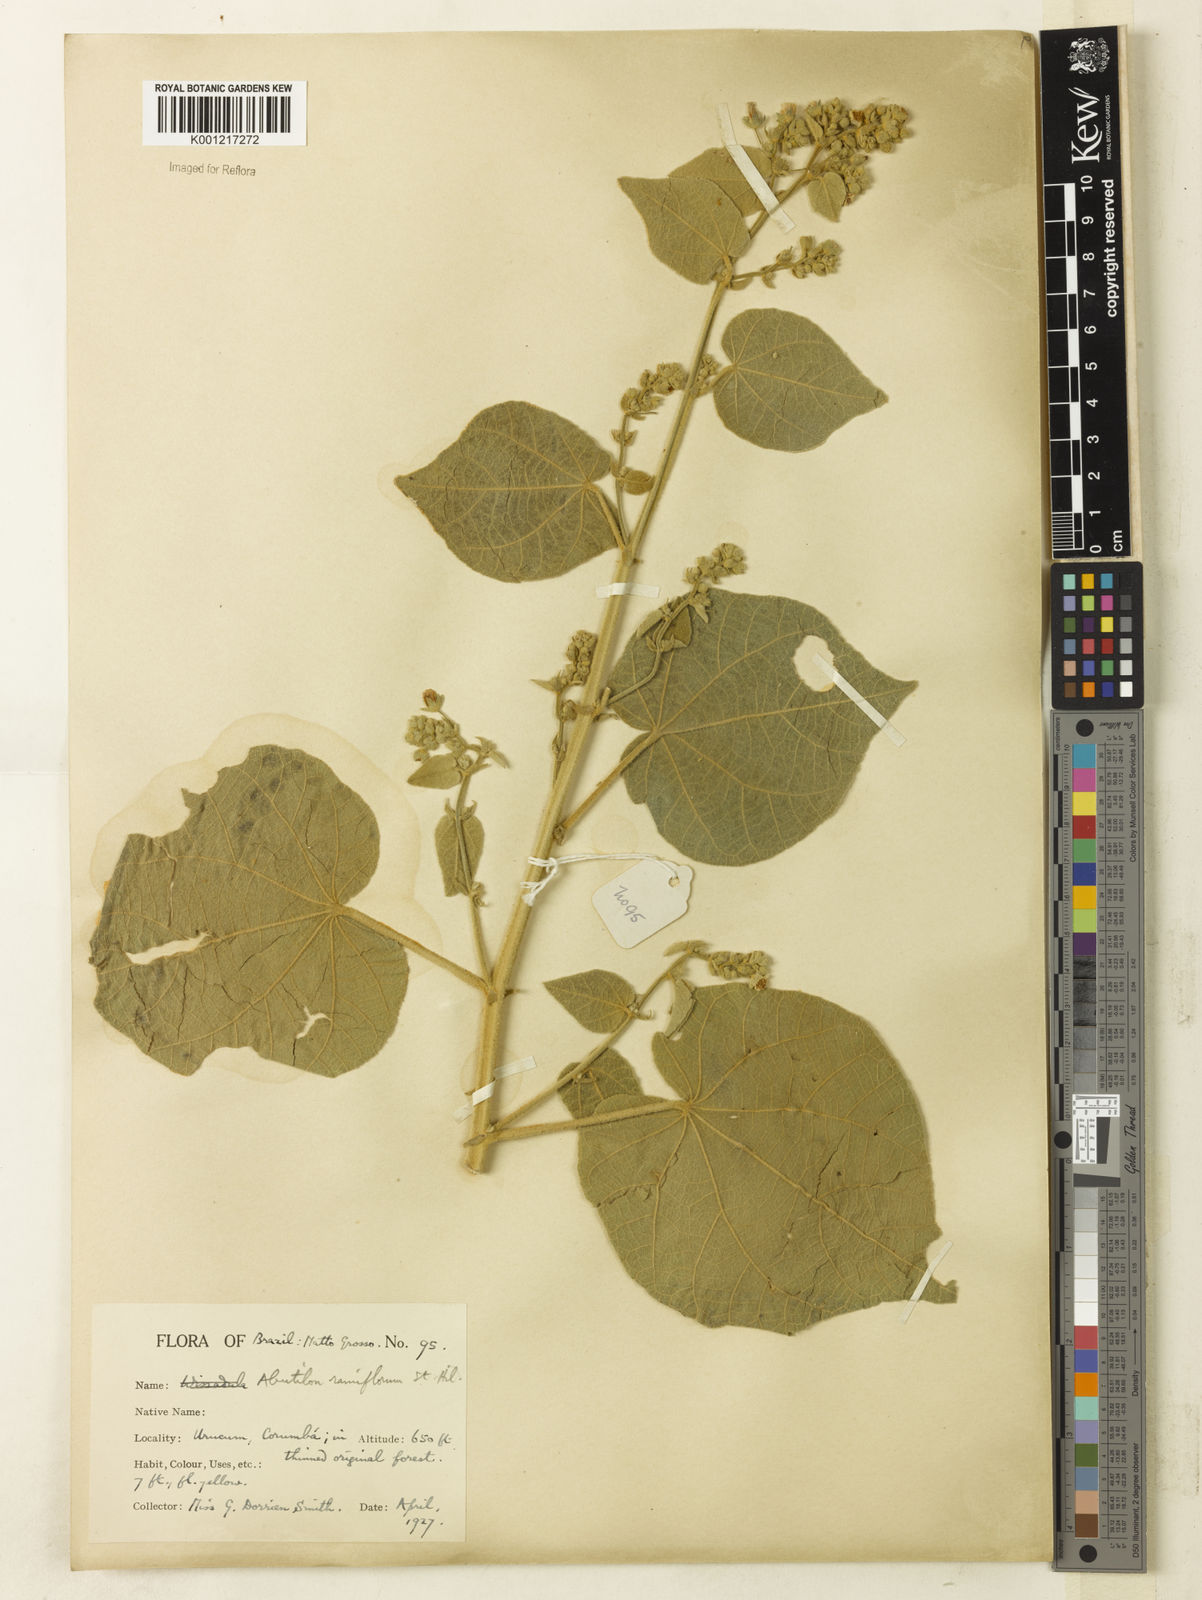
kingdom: Plantae
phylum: Tracheophyta
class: Magnoliopsida
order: Malvales
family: Malvaceae
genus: Abutilon
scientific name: Abutilon ramiflorum
